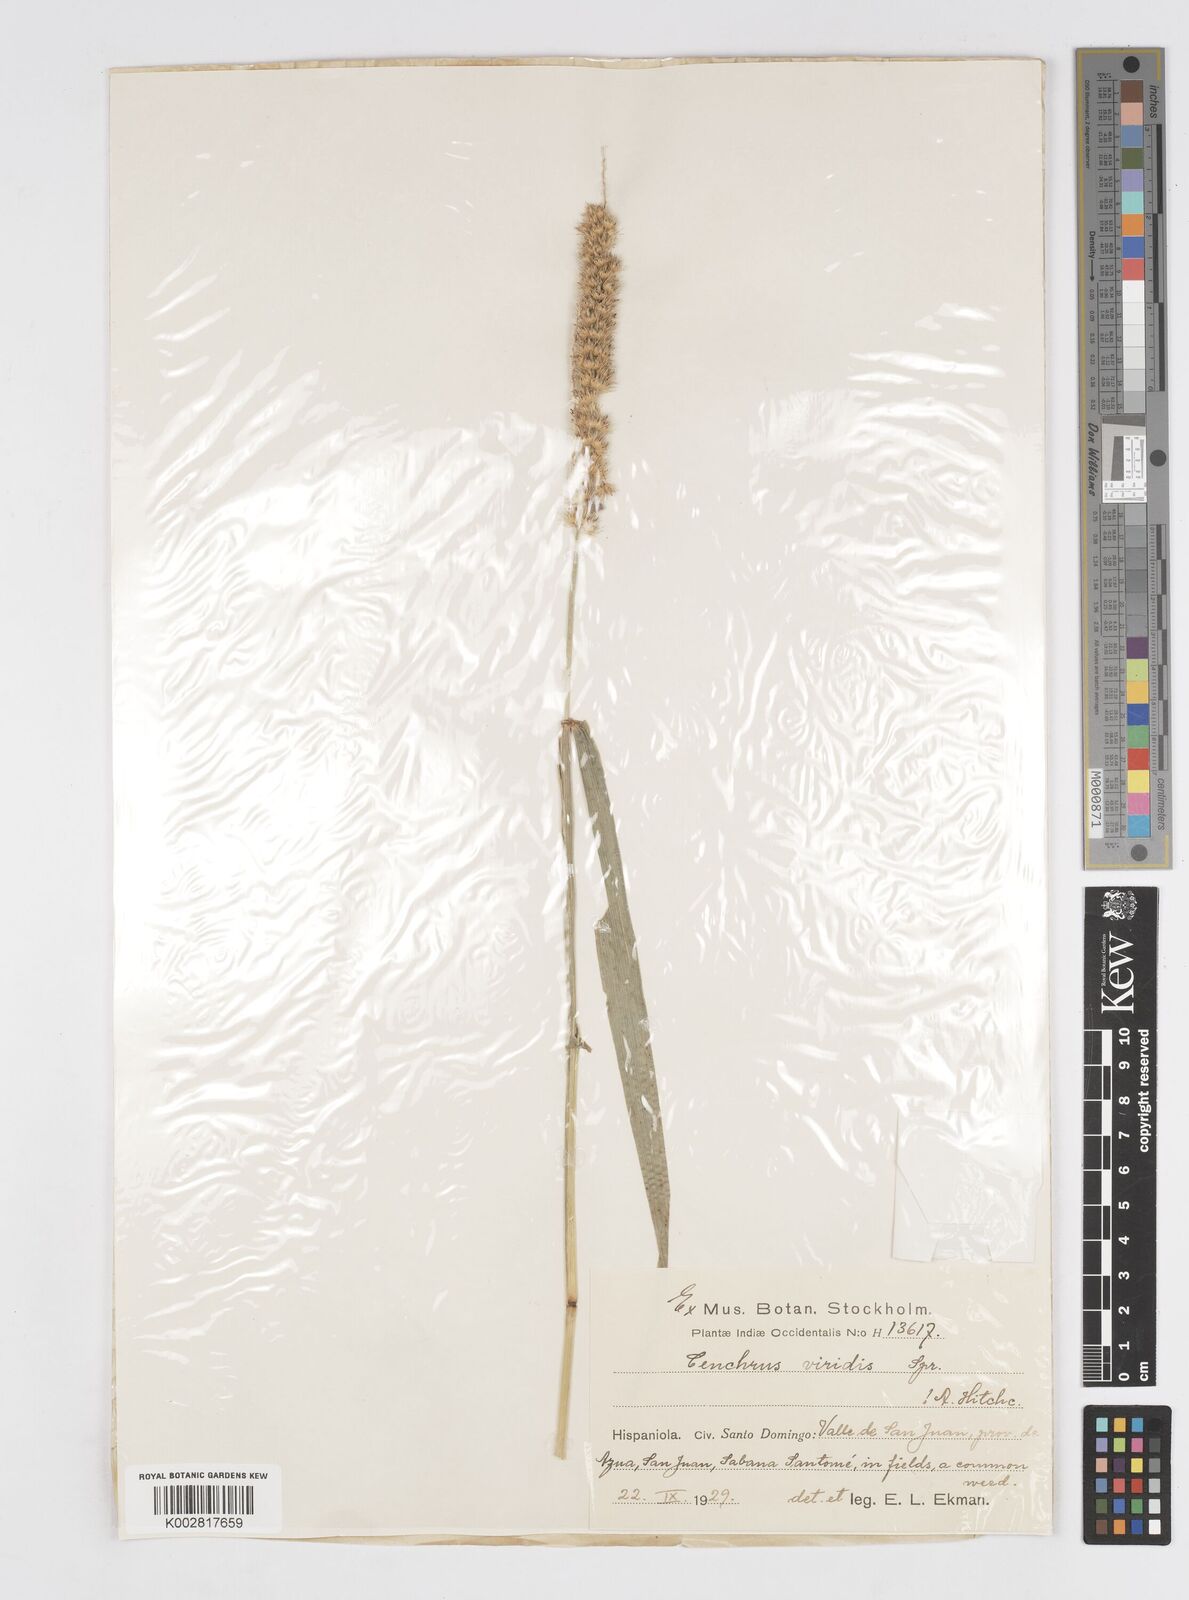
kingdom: Plantae
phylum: Tracheophyta
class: Liliopsida
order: Poales
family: Poaceae
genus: Cenchrus
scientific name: Cenchrus brownii
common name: Slim-bristle sandbur
